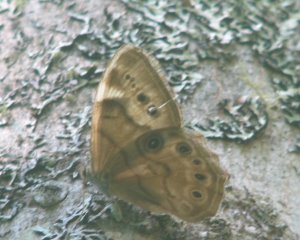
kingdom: Animalia
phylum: Arthropoda
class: Insecta
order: Lepidoptera
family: Nymphalidae
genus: Lethe
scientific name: Lethe anthedon
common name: Northern Pearly-Eye
